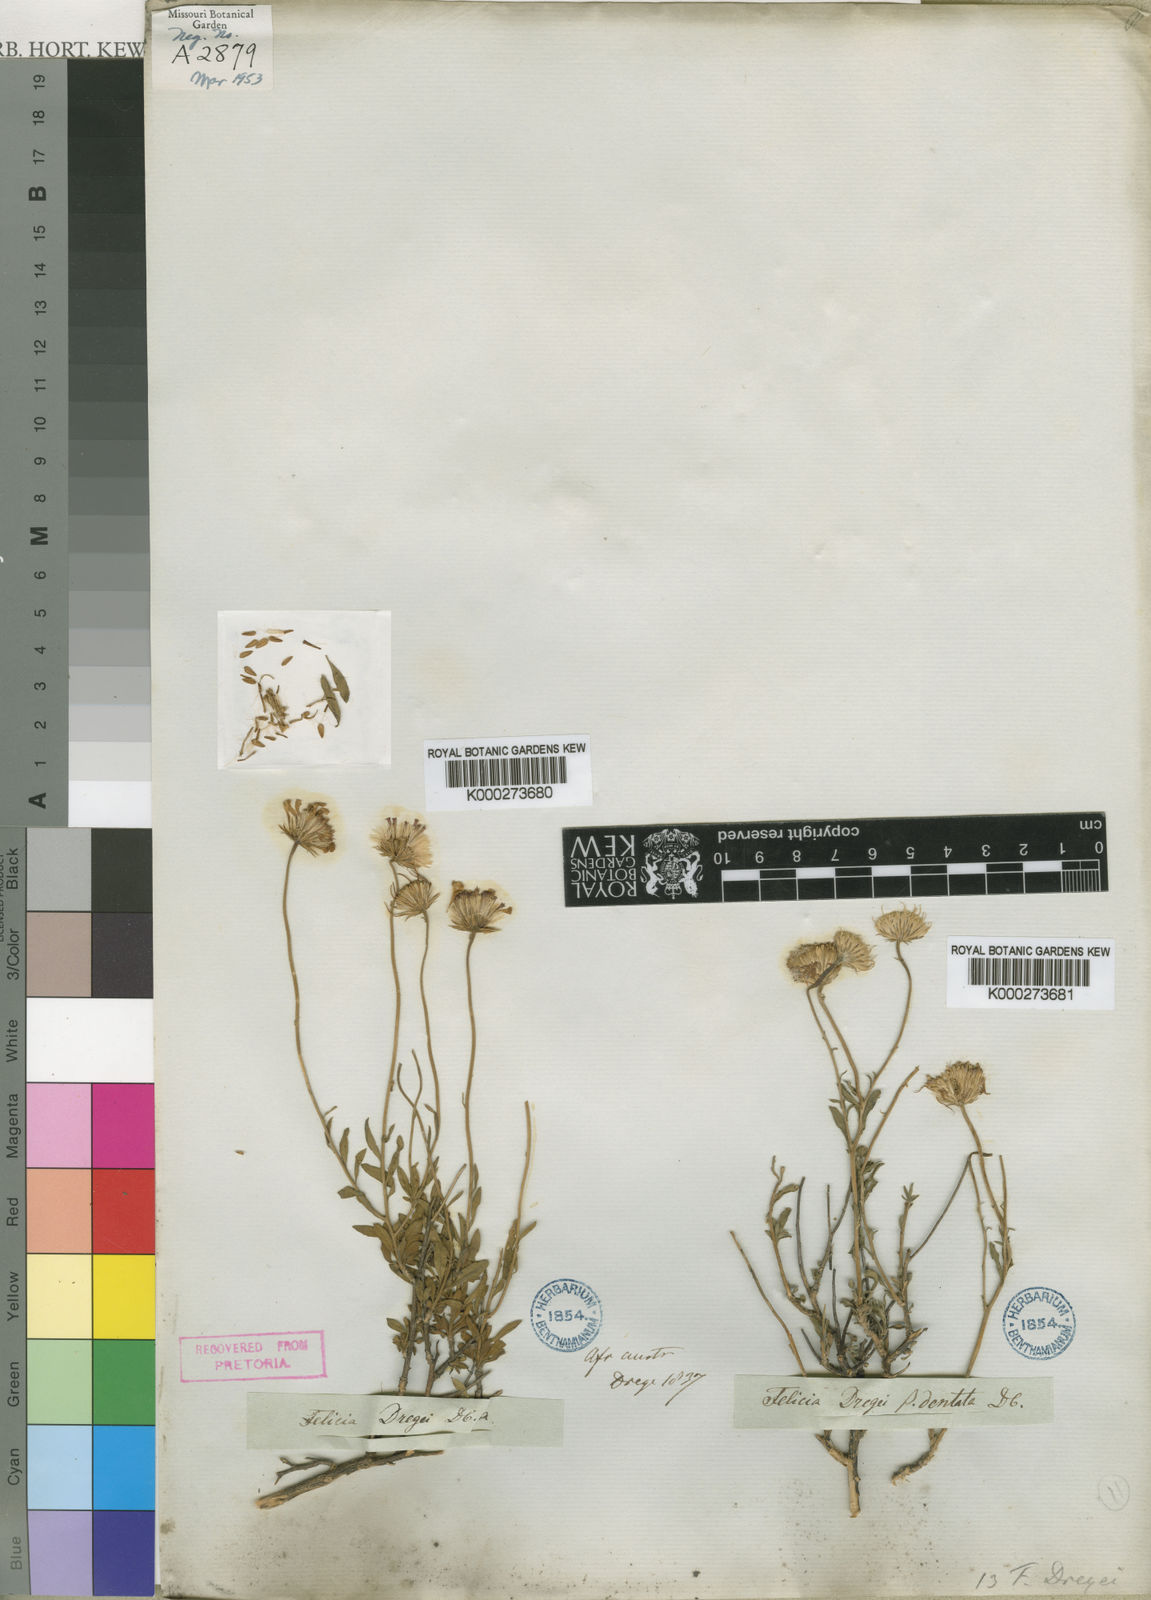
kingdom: Plantae
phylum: Tracheophyta
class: Magnoliopsida
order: Asterales
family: Asteraceae
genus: Felicia
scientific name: Felicia dregei
